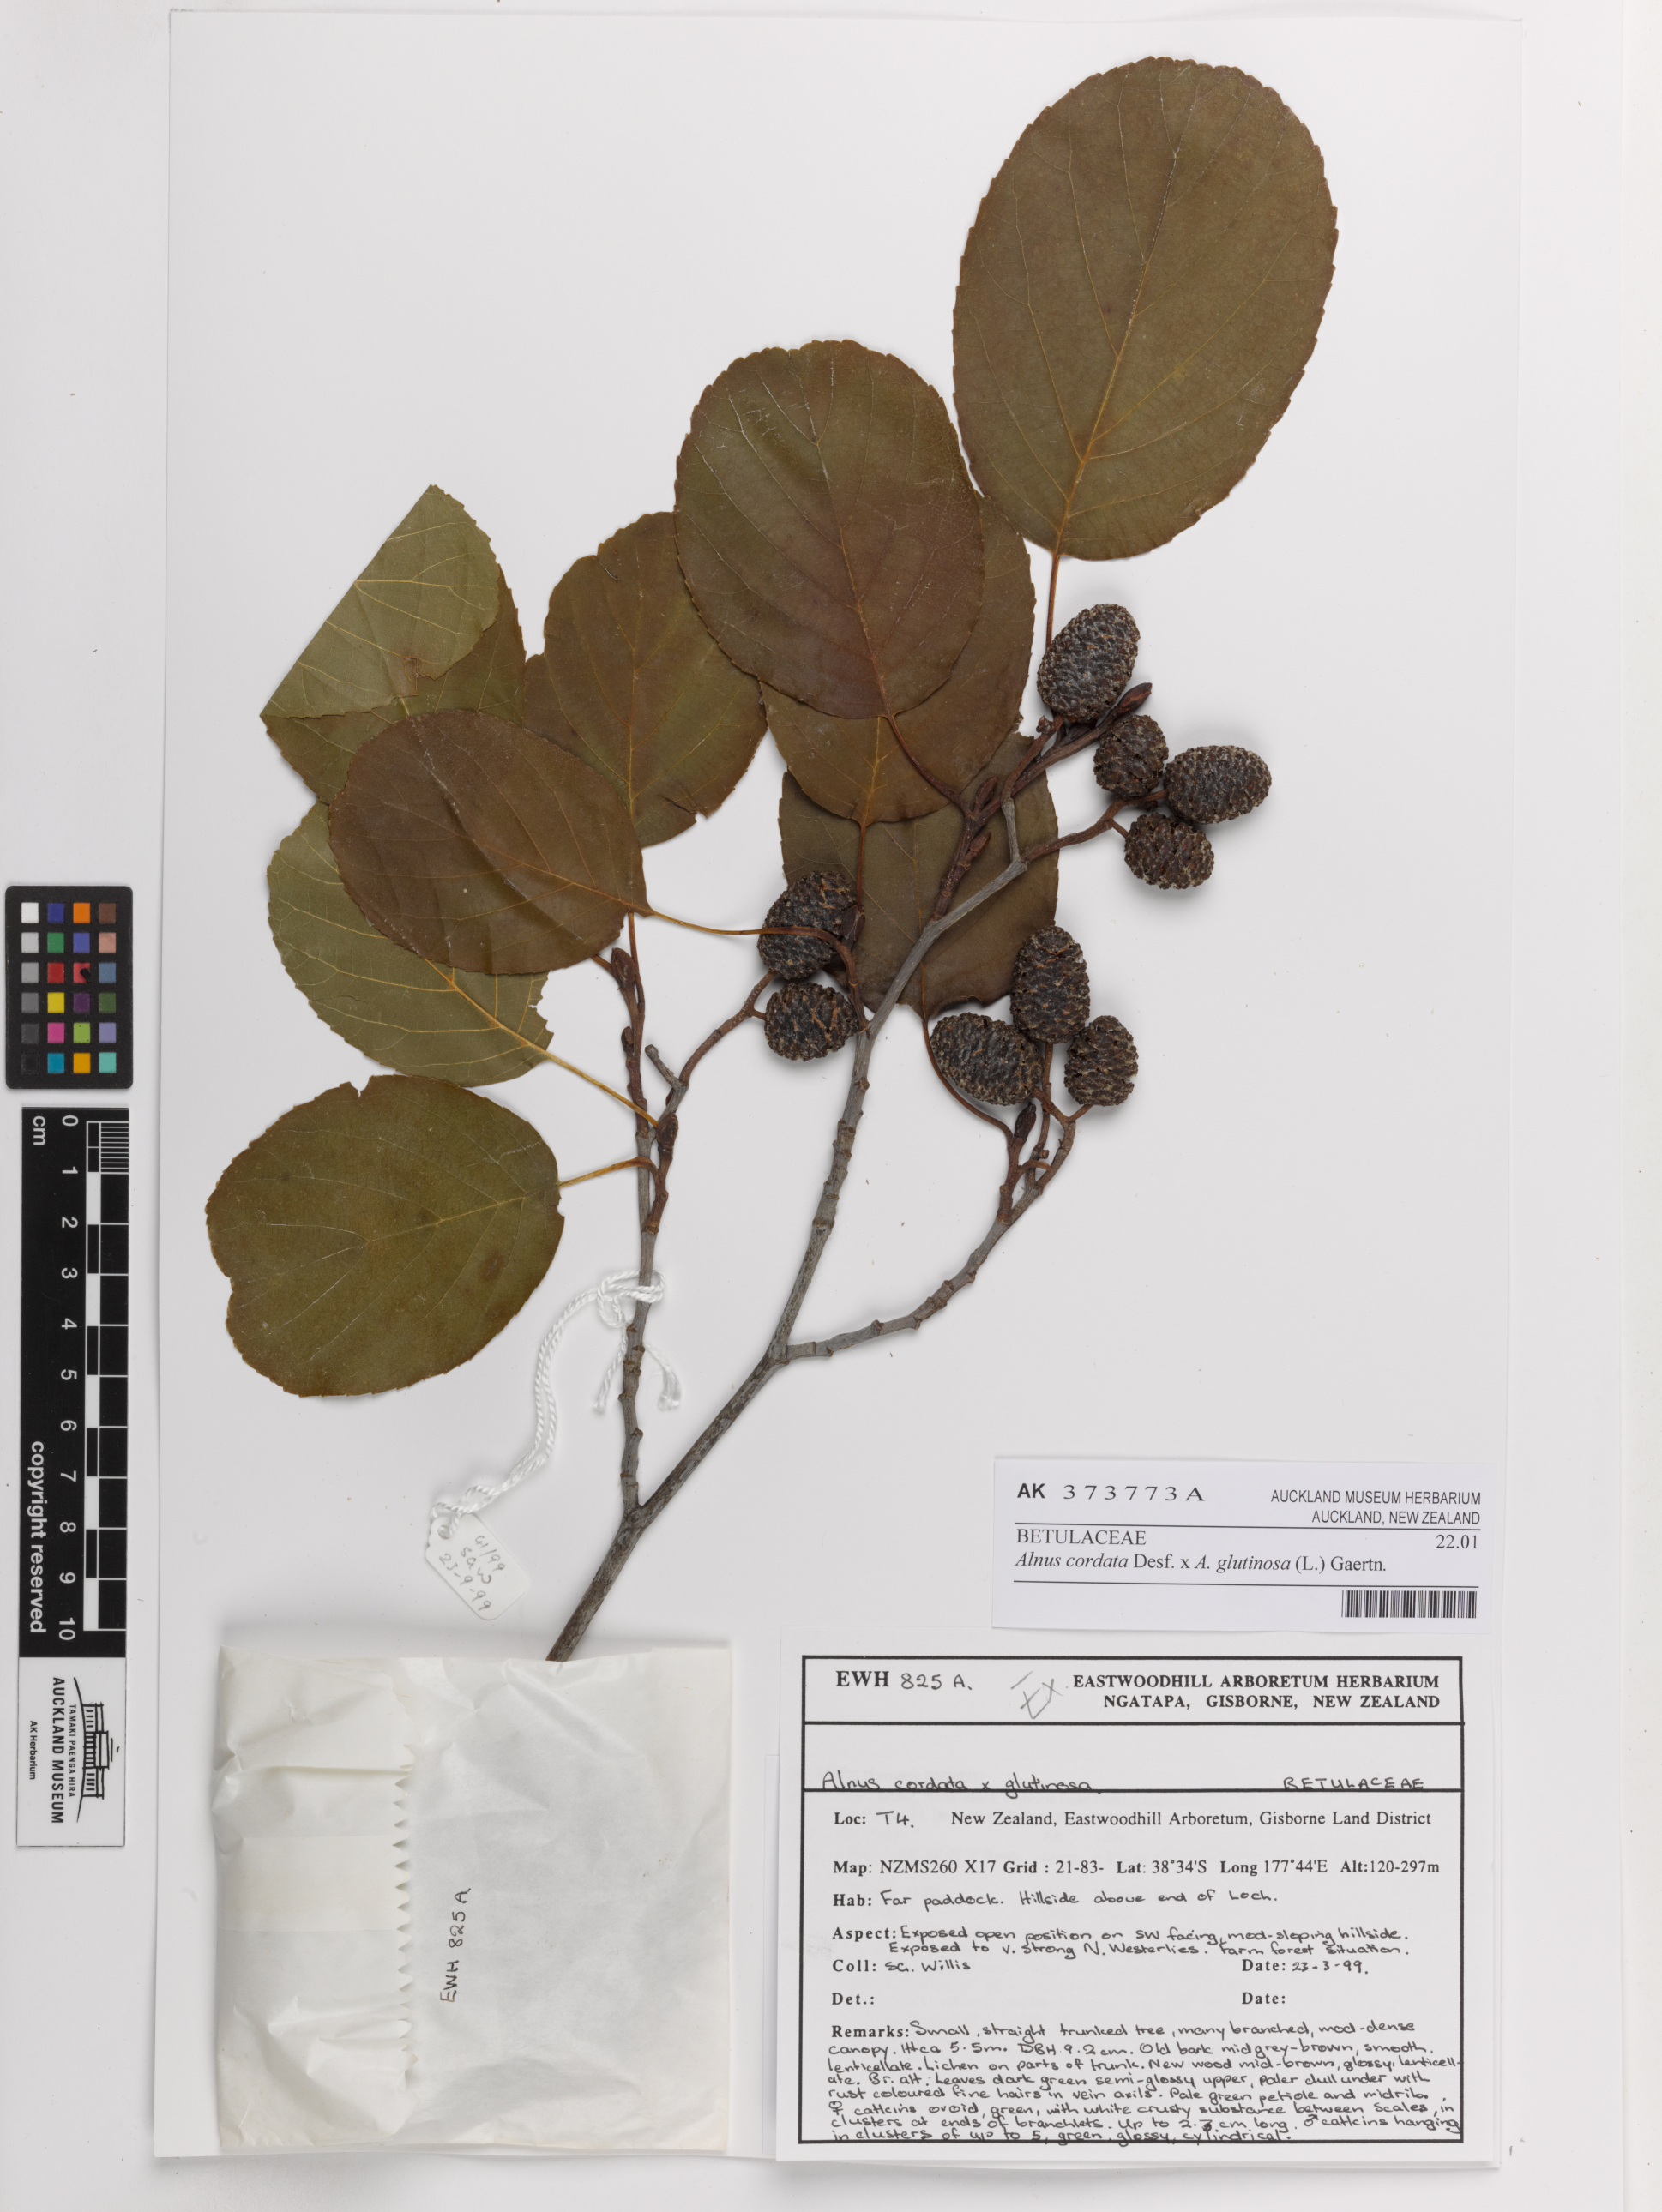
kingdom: Plantae
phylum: Tracheophyta
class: Magnoliopsida
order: Fagales
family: Betulaceae
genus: Alnus
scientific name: Alnus
